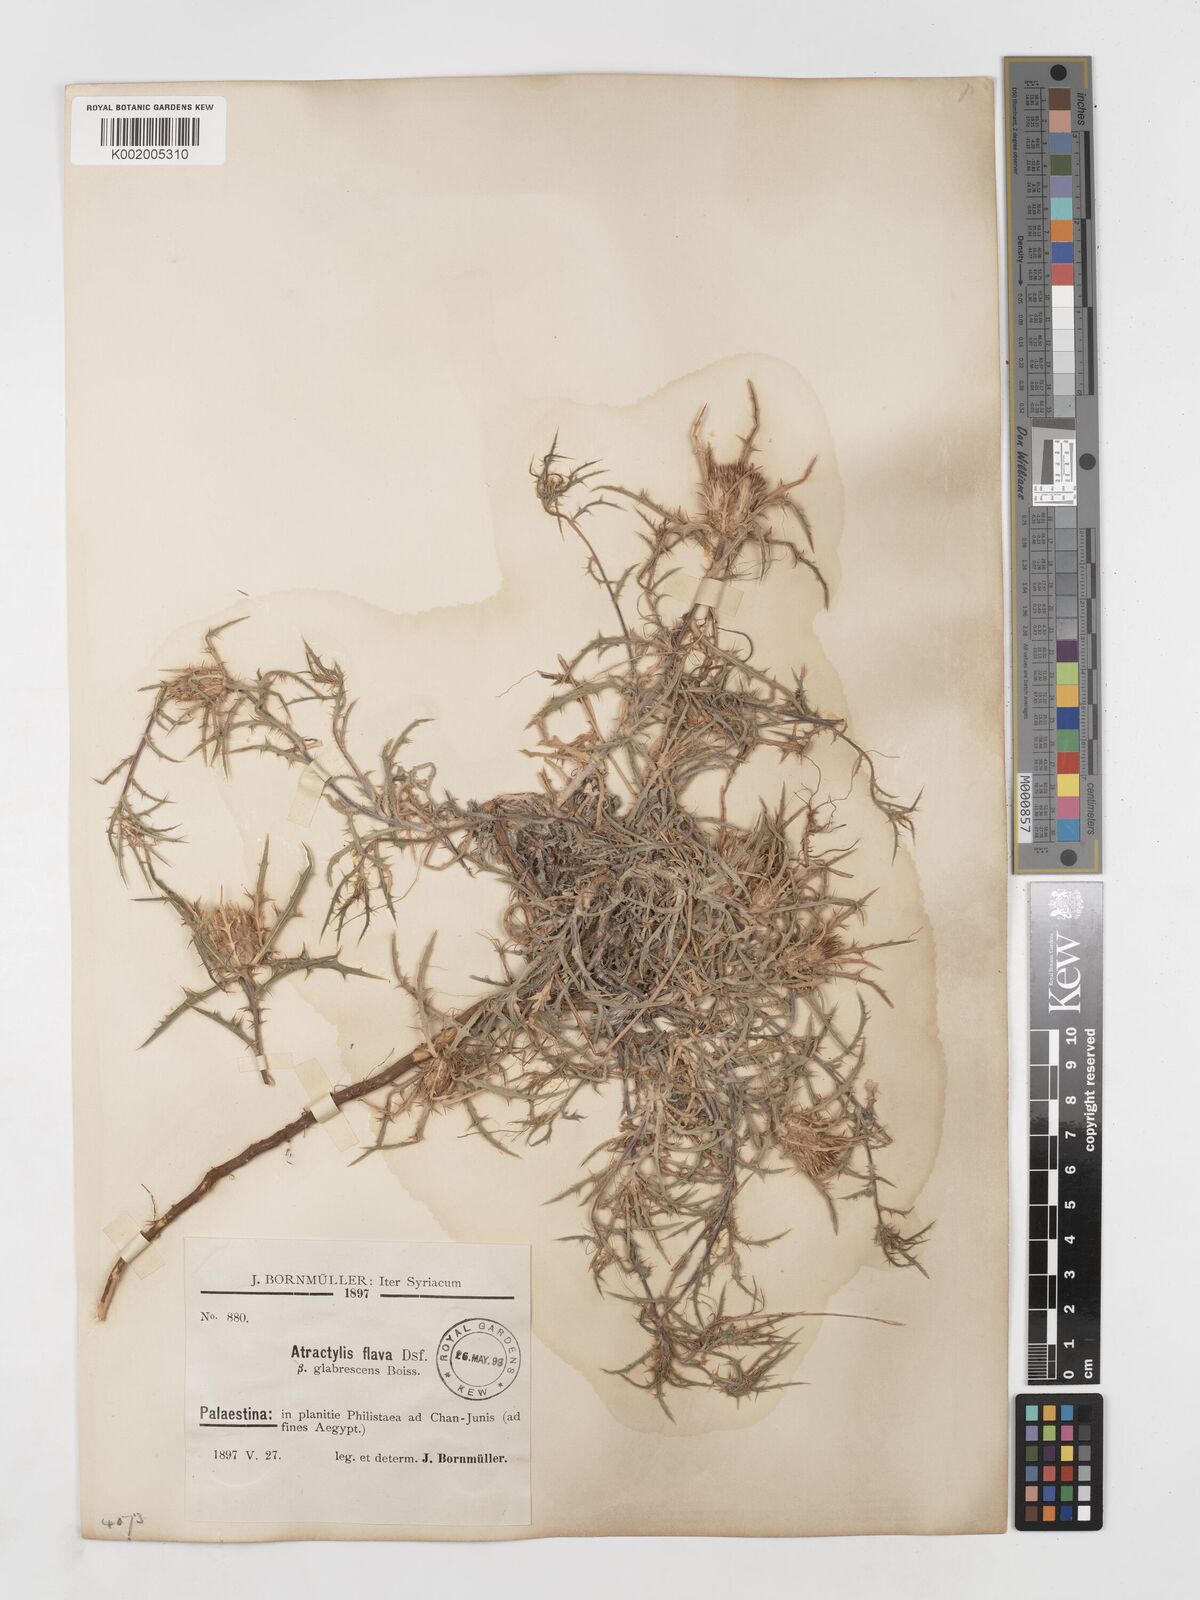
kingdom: Plantae
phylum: Tracheophyta
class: Magnoliopsida
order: Asterales
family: Asteraceae
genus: Atractylis
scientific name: Atractylis carduus
